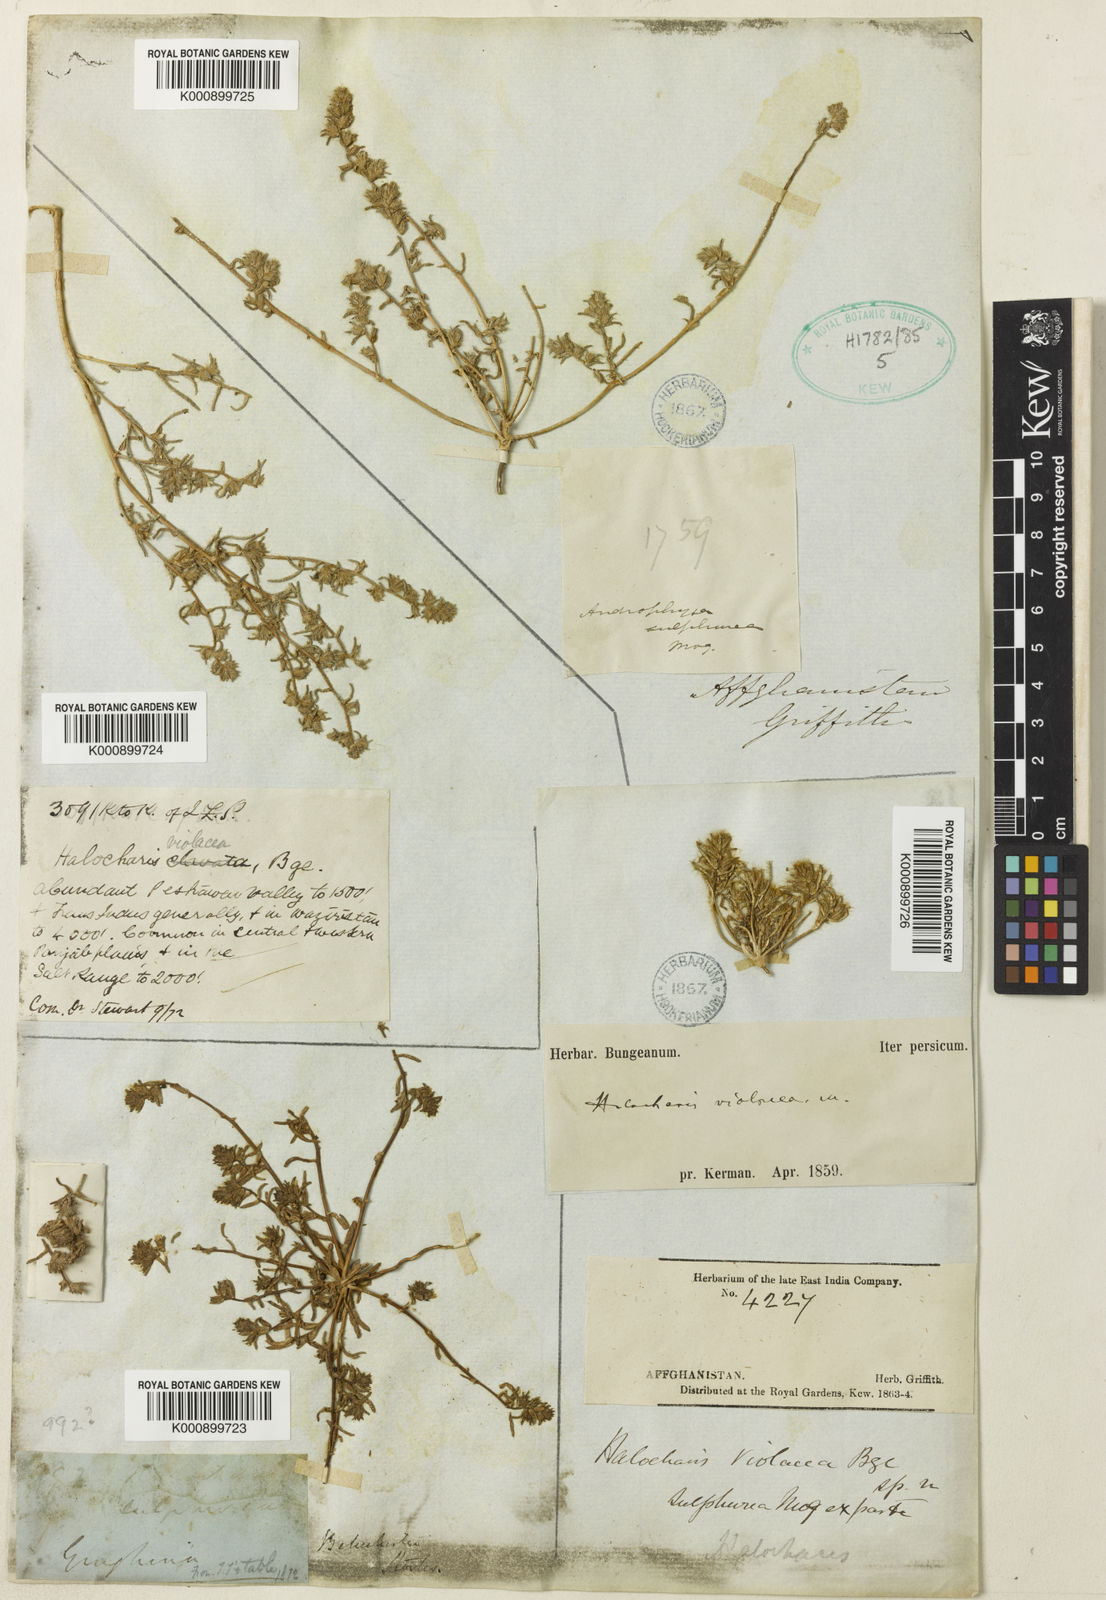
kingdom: Plantae
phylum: Tracheophyta
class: Magnoliopsida
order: Caryophyllales
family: Amaranthaceae
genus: Halocharis
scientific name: Halocharis violacea
